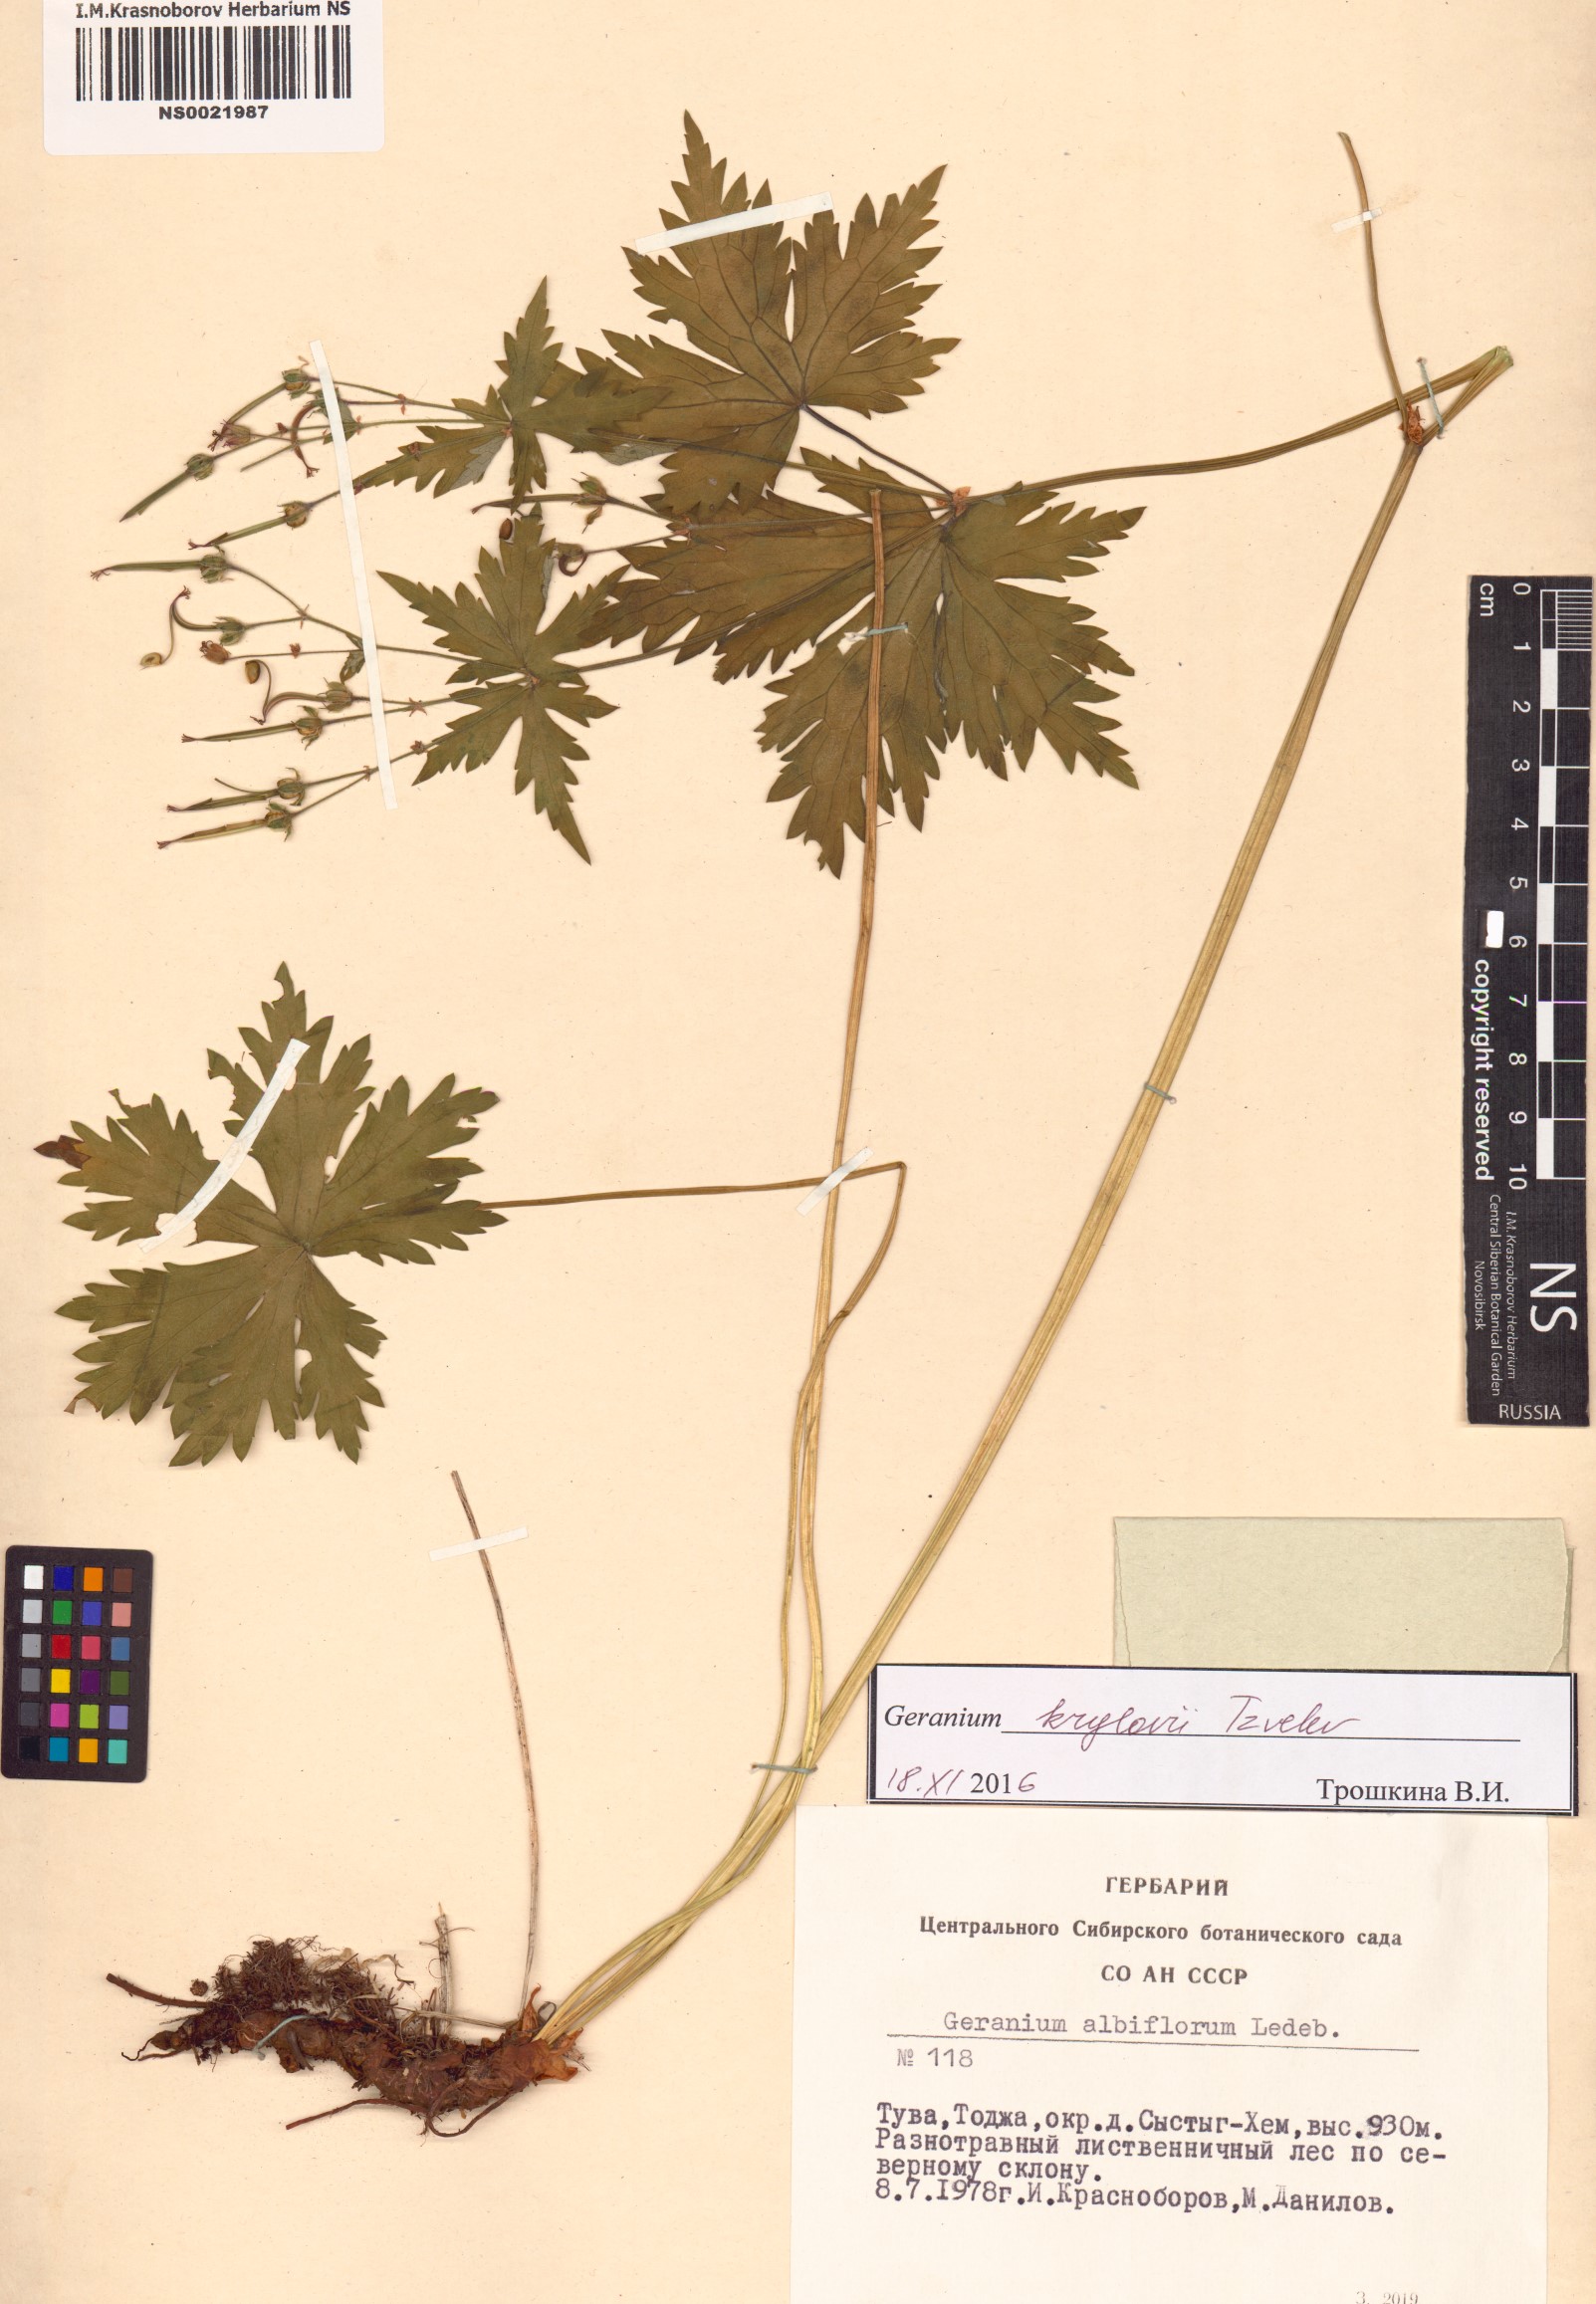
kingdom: Plantae
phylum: Tracheophyta
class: Magnoliopsida
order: Geraniales
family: Geraniaceae
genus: Geranium
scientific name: Geranium sylvaticum
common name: Wood crane's-bill
